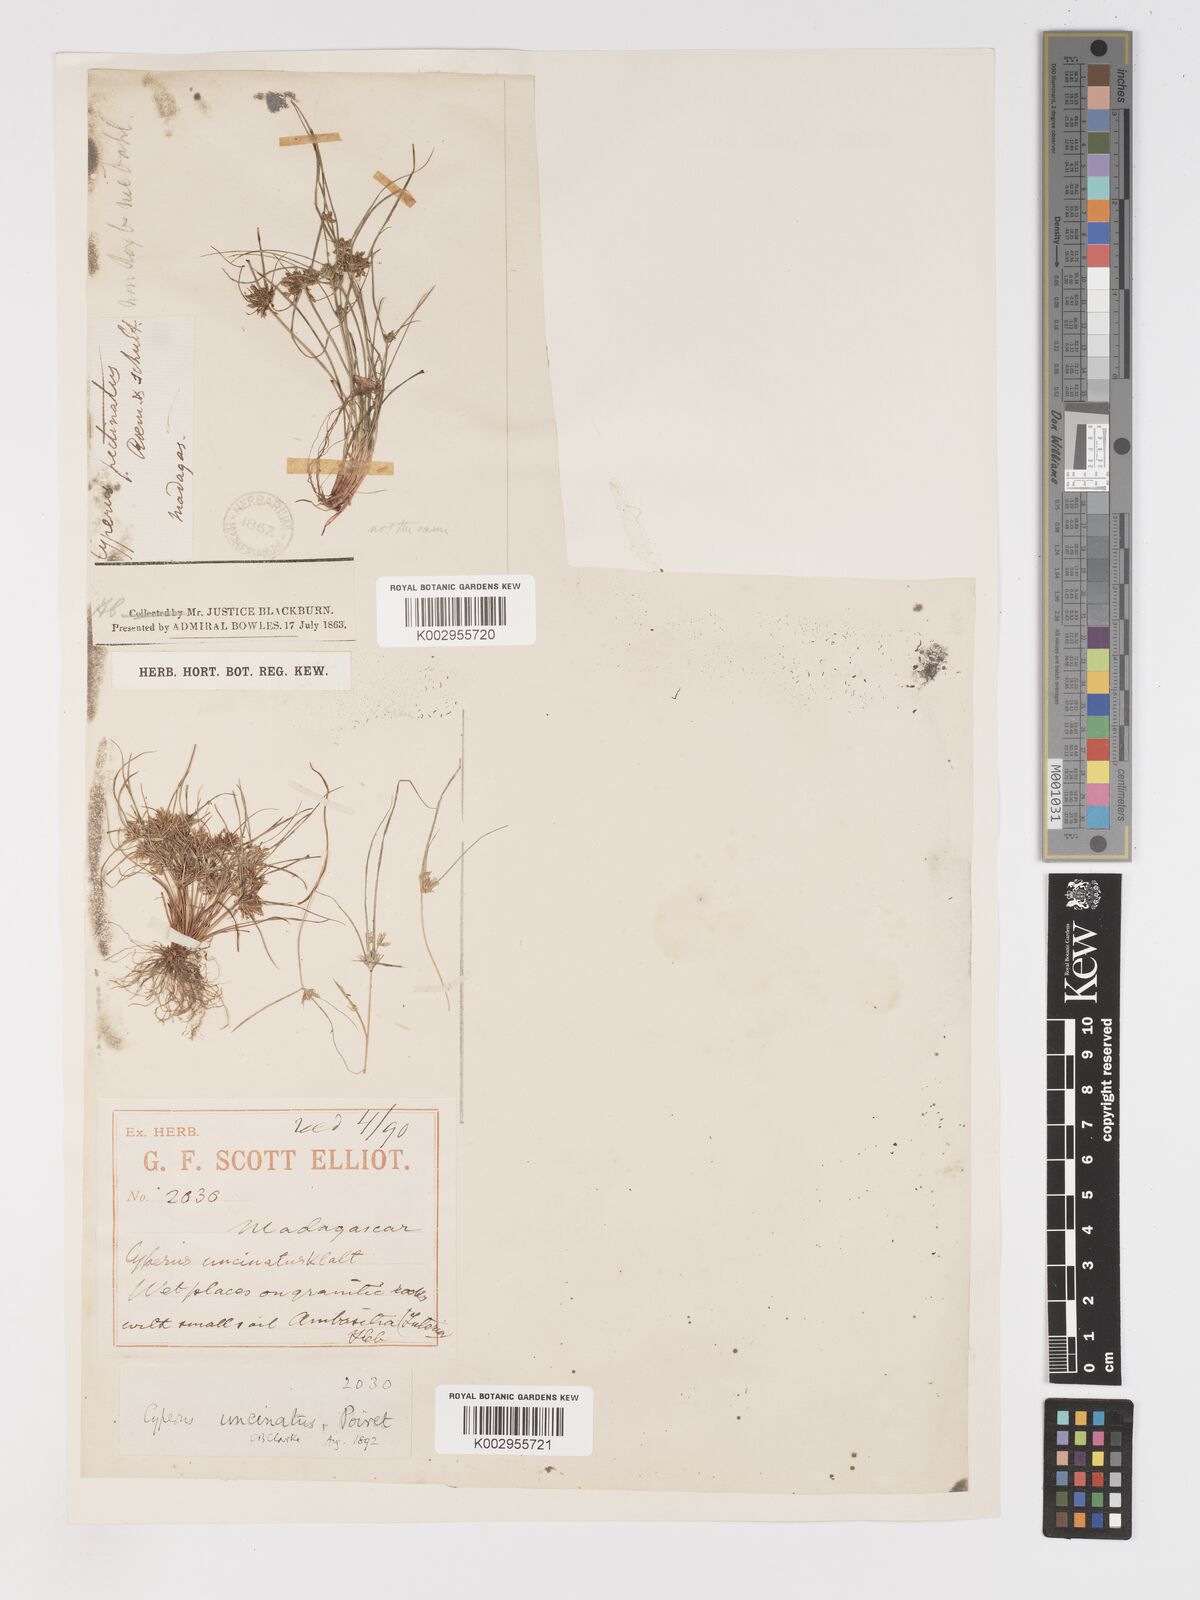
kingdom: Plantae
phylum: Tracheophyta
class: Liliopsida
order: Poales
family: Cyperaceae
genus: Cyperus
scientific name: Cyperus cuspidatus
